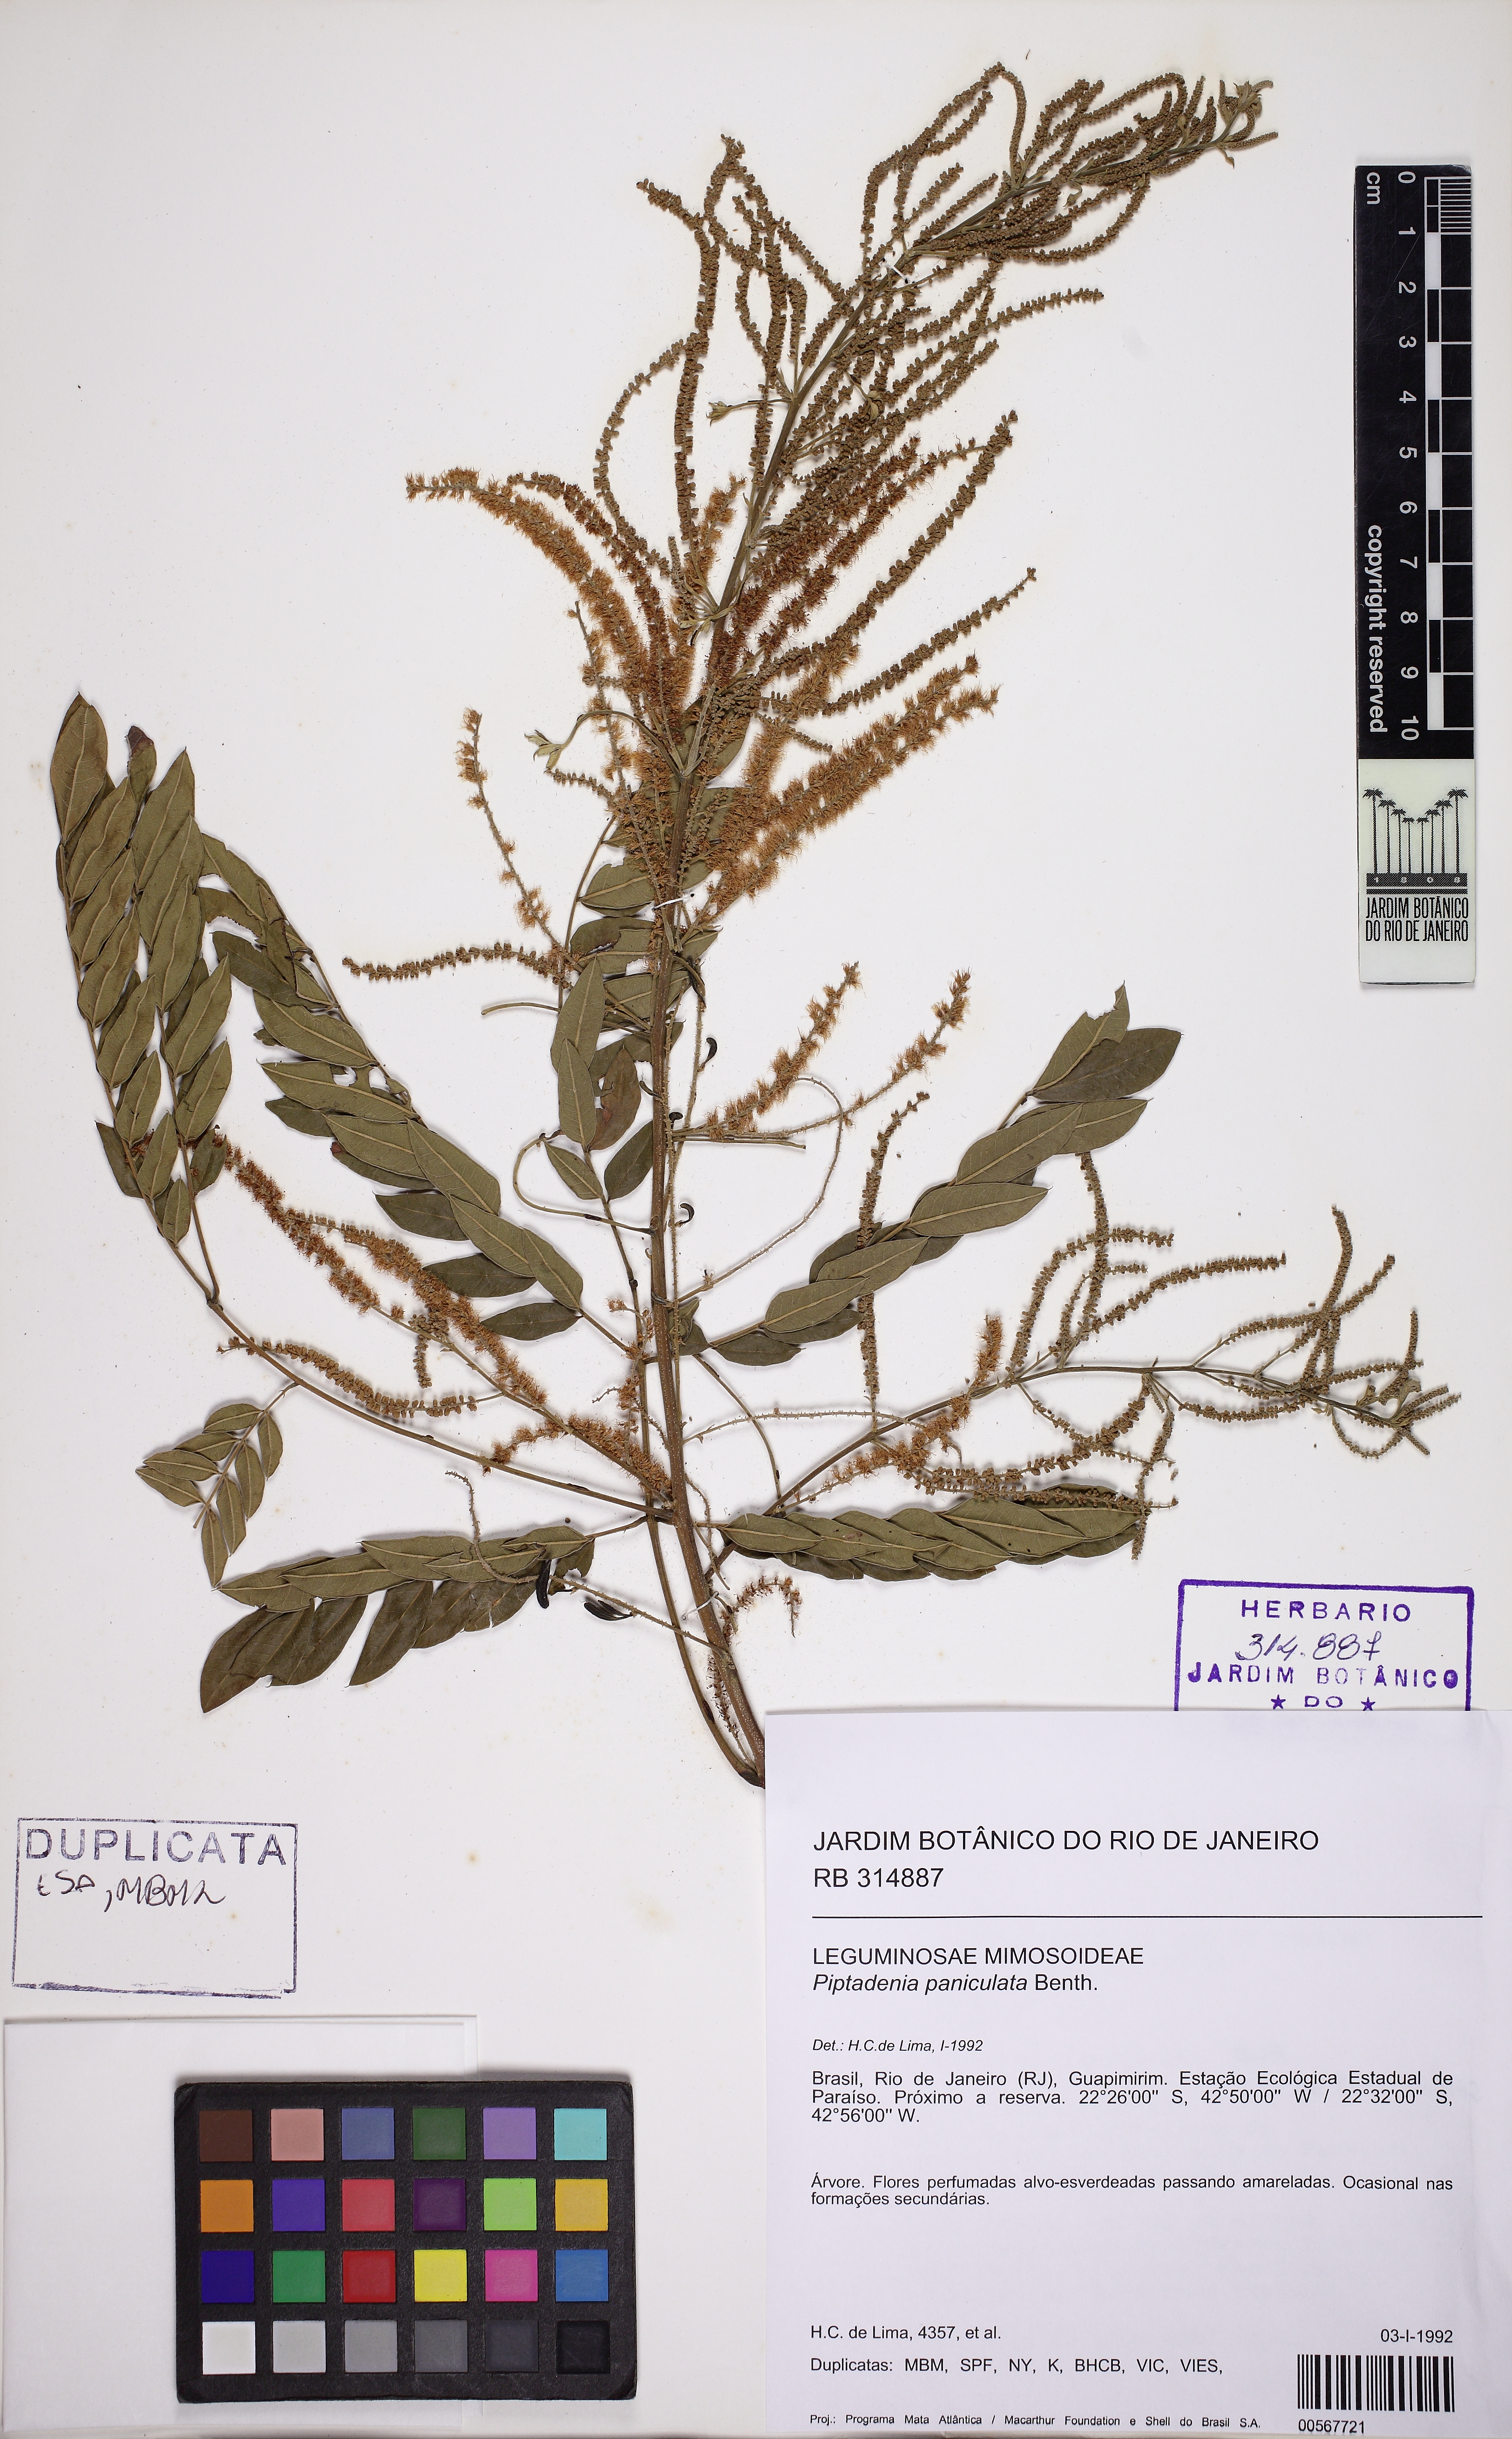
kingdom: Plantae
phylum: Tracheophyta
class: Magnoliopsida
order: Fabales
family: Fabaceae
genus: Piptadenia
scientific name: Piptadenia paniculata
